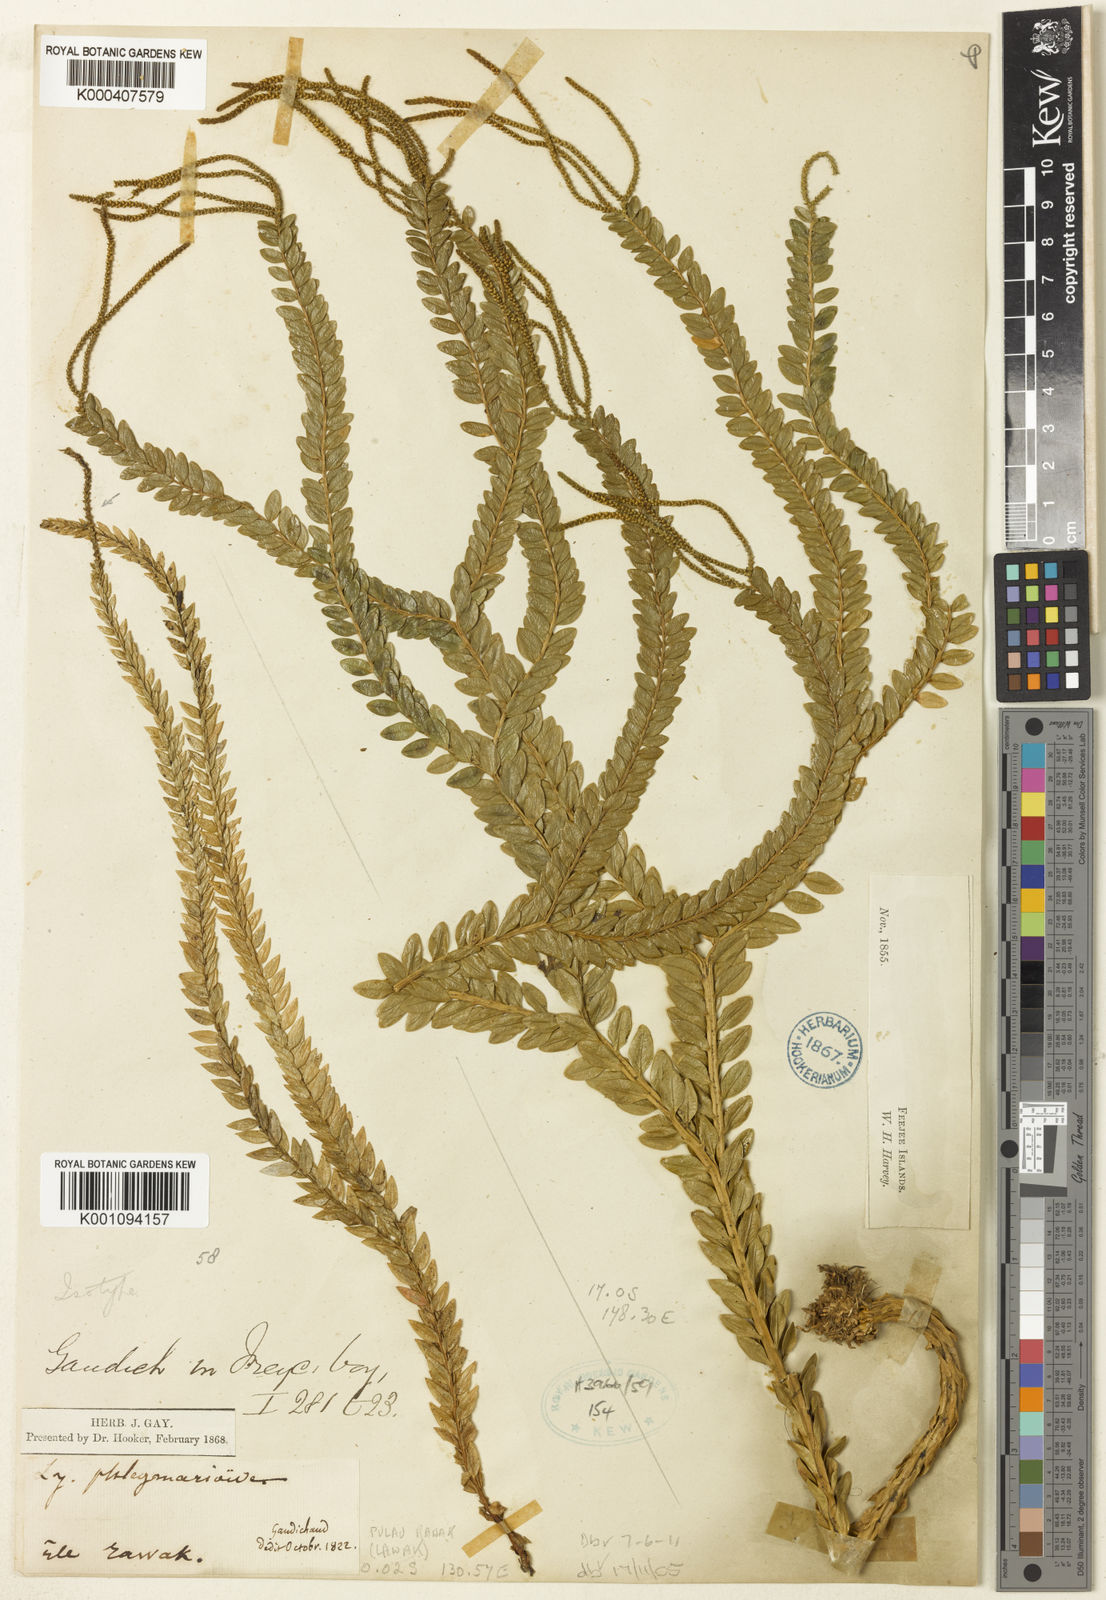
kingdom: Plantae
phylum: Tracheophyta
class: Lycopodiopsida
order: Lycopodiales
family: Lycopodiaceae
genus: Phlegmariurus
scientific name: Phlegmariurus phlegmarioides
